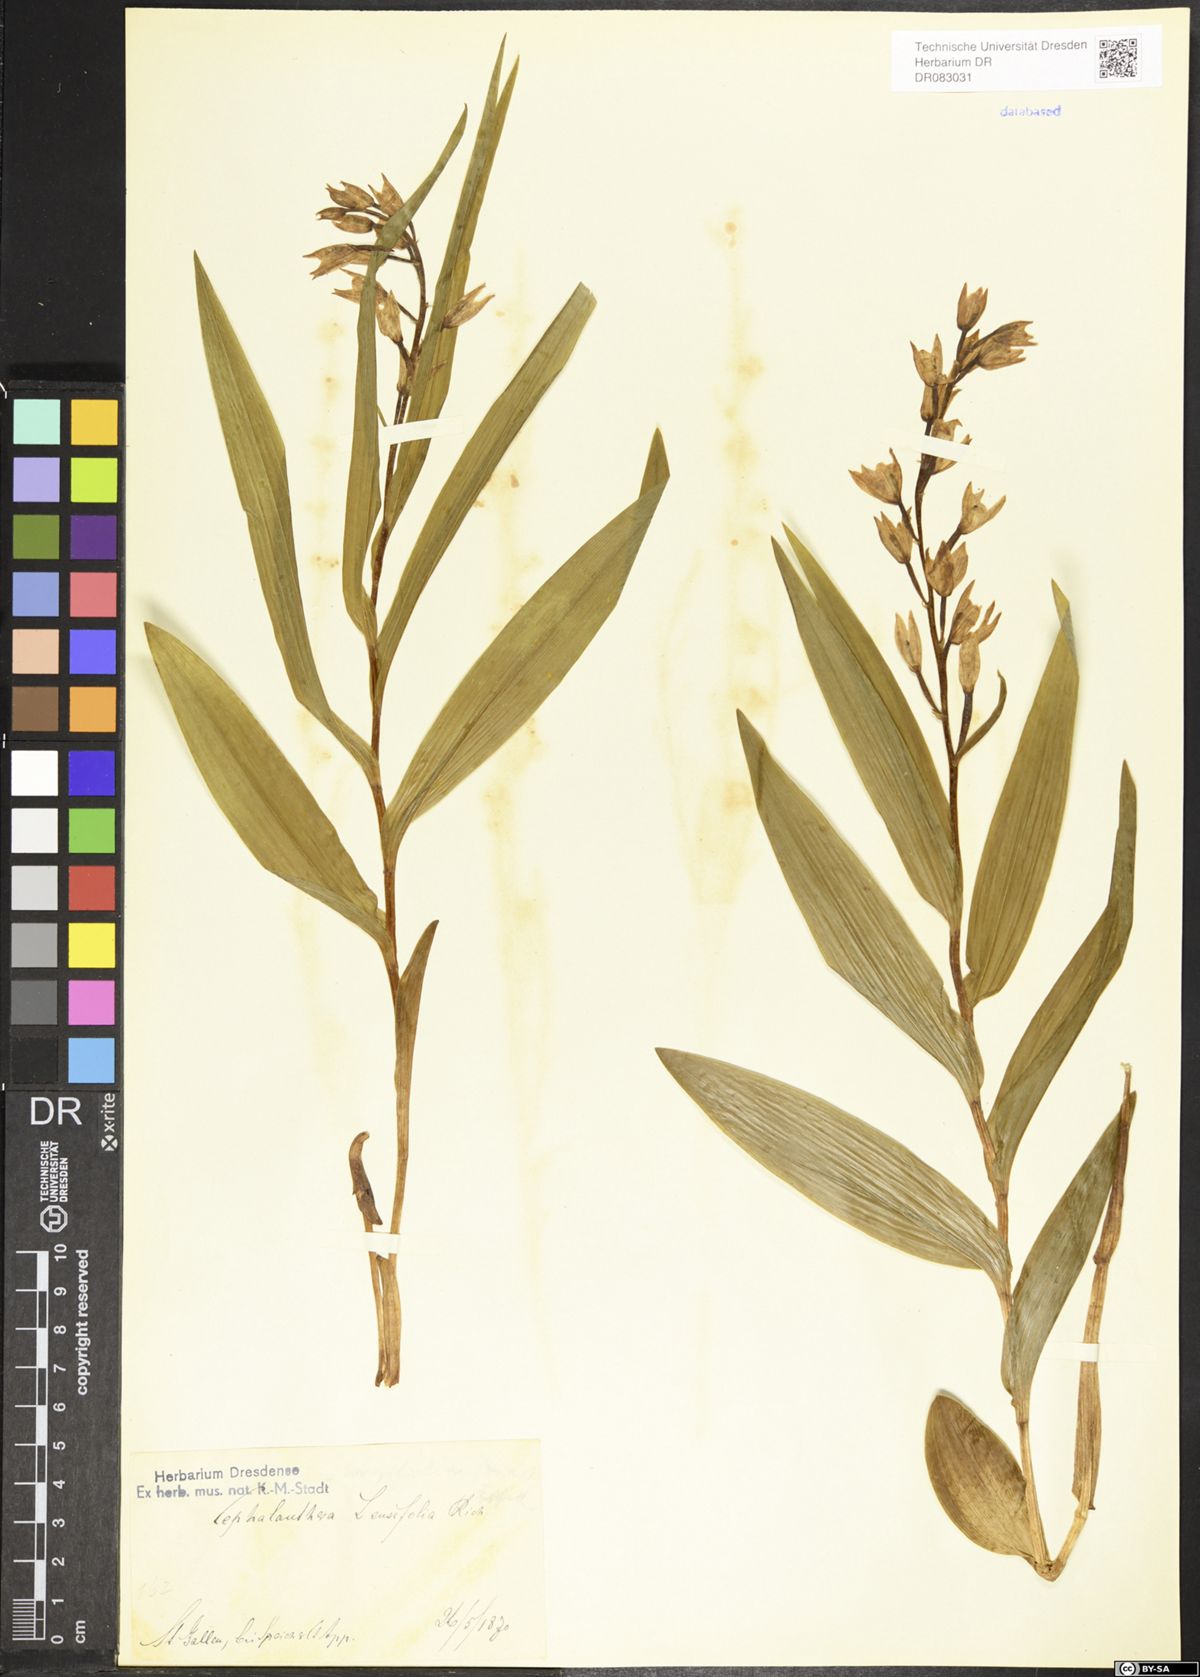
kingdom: Plantae
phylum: Tracheophyta
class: Liliopsida
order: Asparagales
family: Orchidaceae
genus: Cephalanthera
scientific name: Cephalanthera longifolia
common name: Narrow-leaved helleborine
